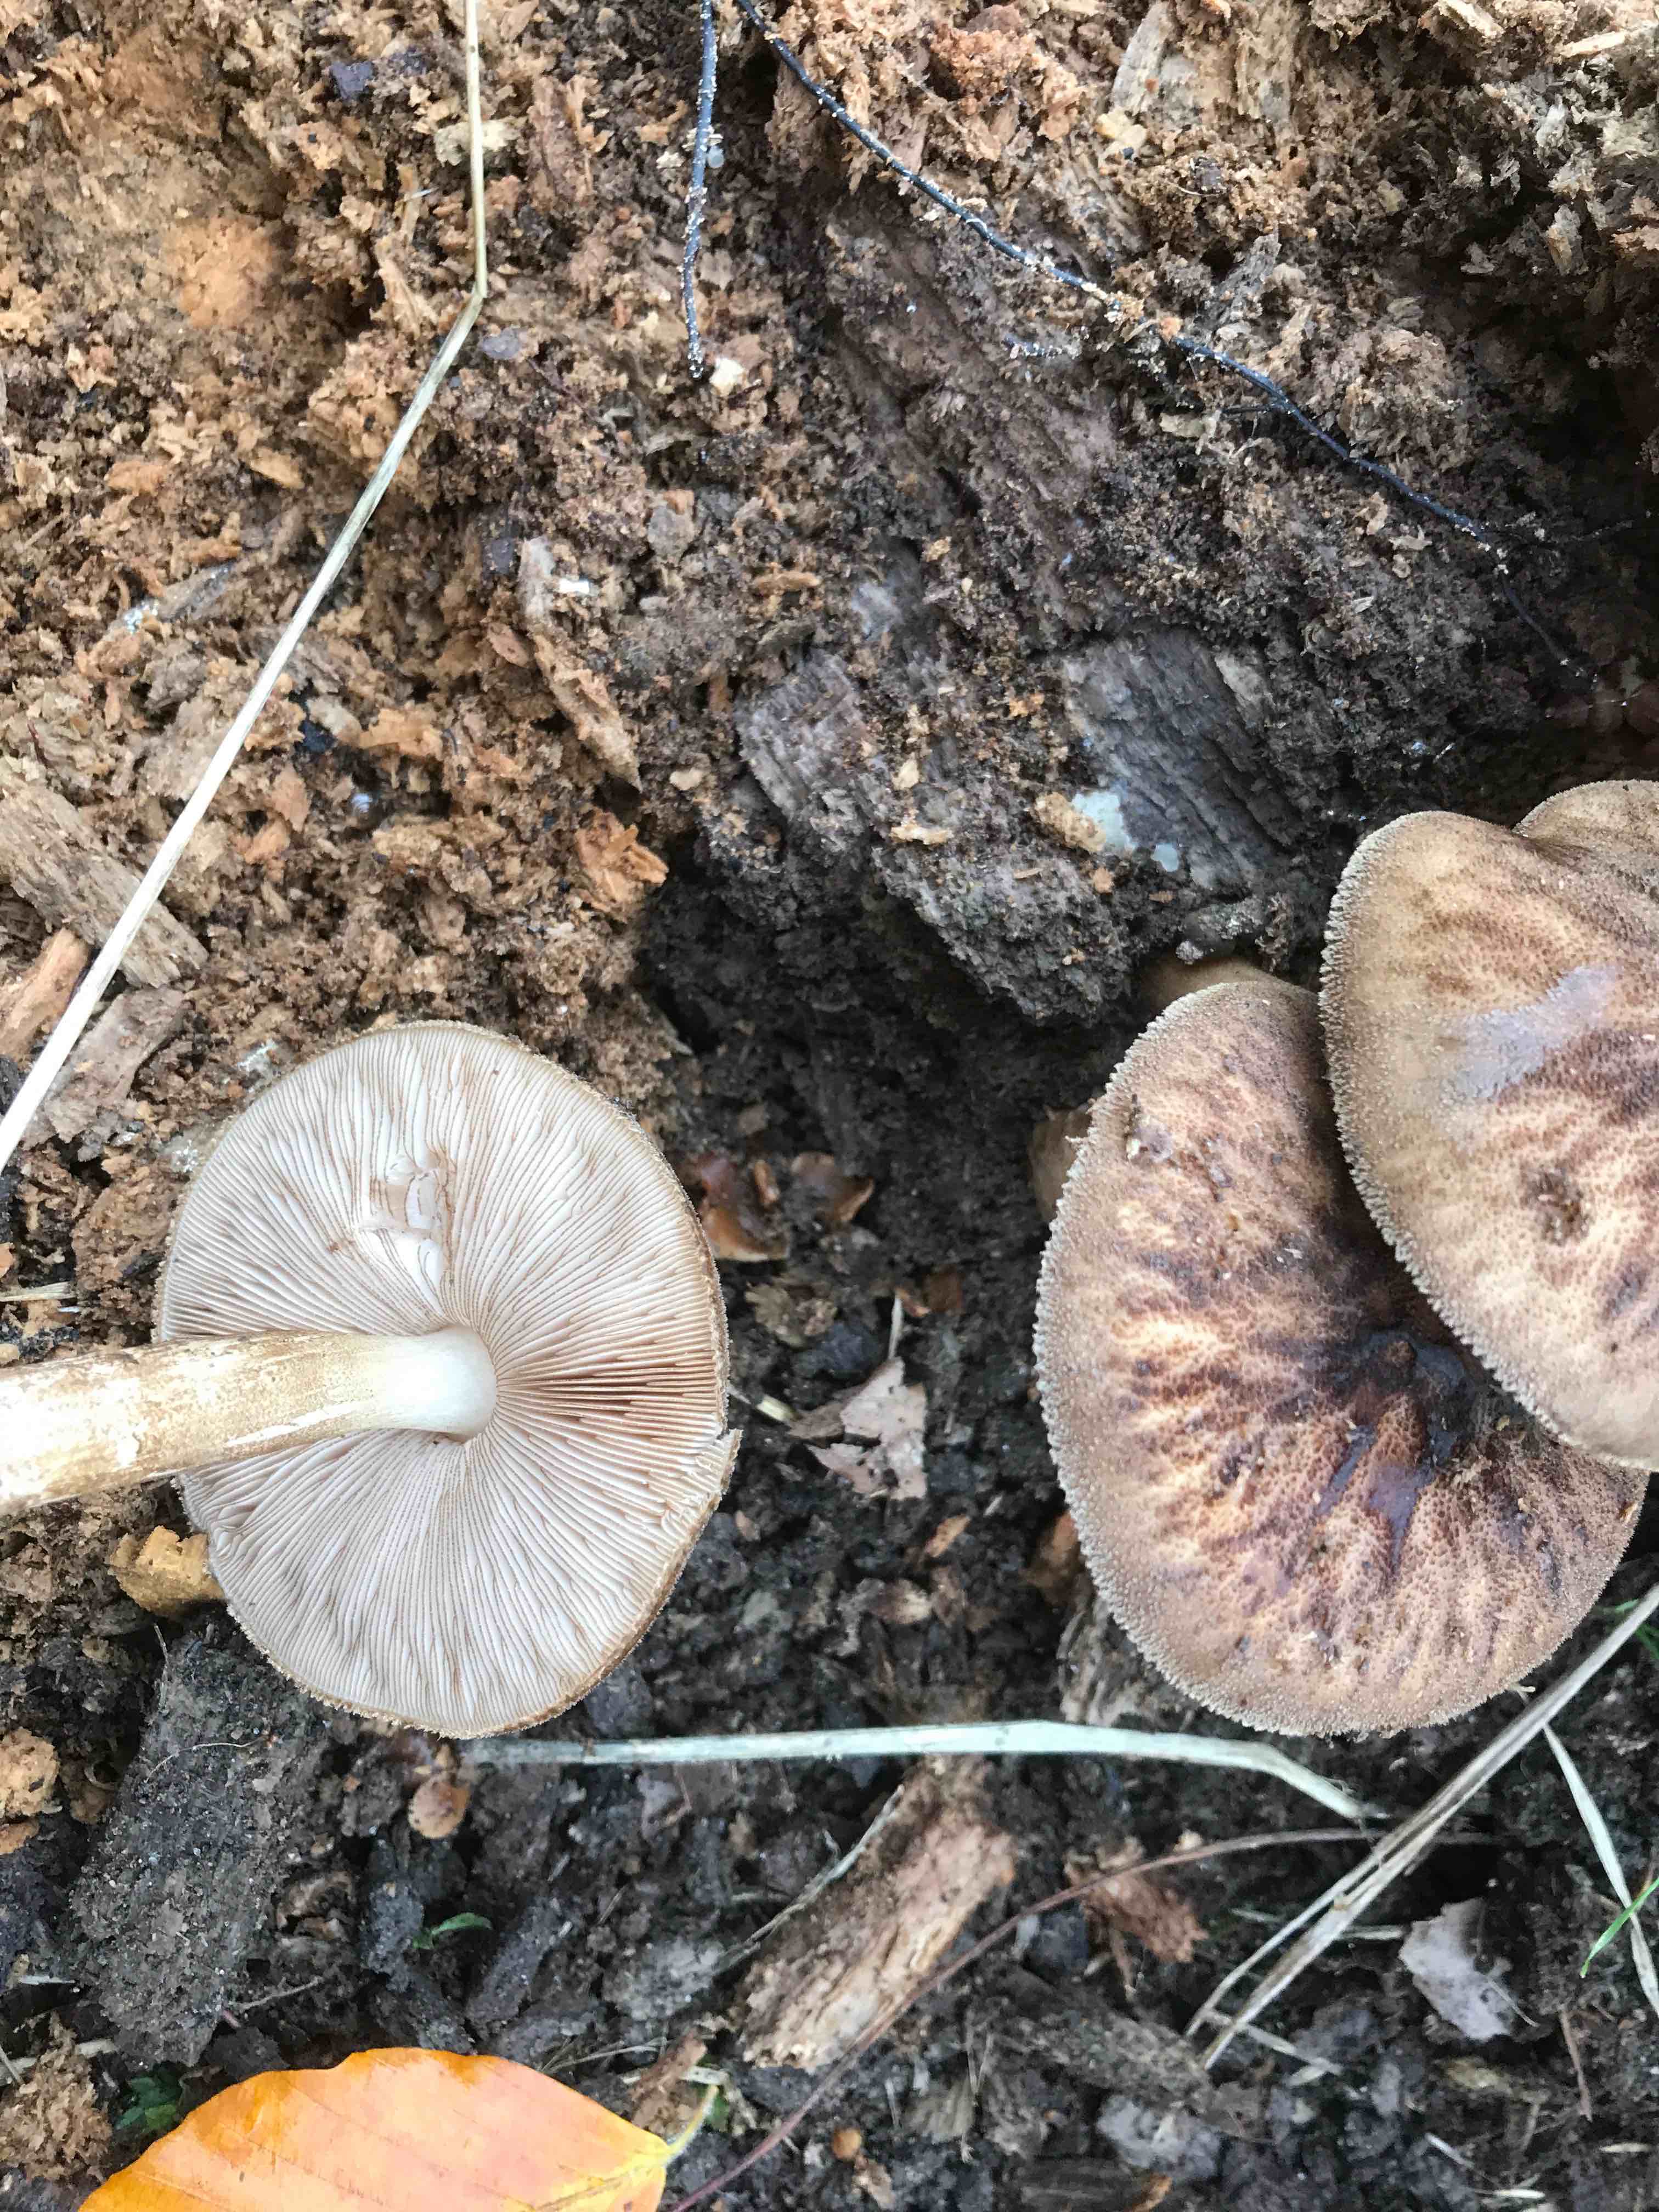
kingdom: Fungi
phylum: Basidiomycota
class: Agaricomycetes
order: Agaricales
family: Pluteaceae
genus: Pluteus
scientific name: Pluteus umbrosus
